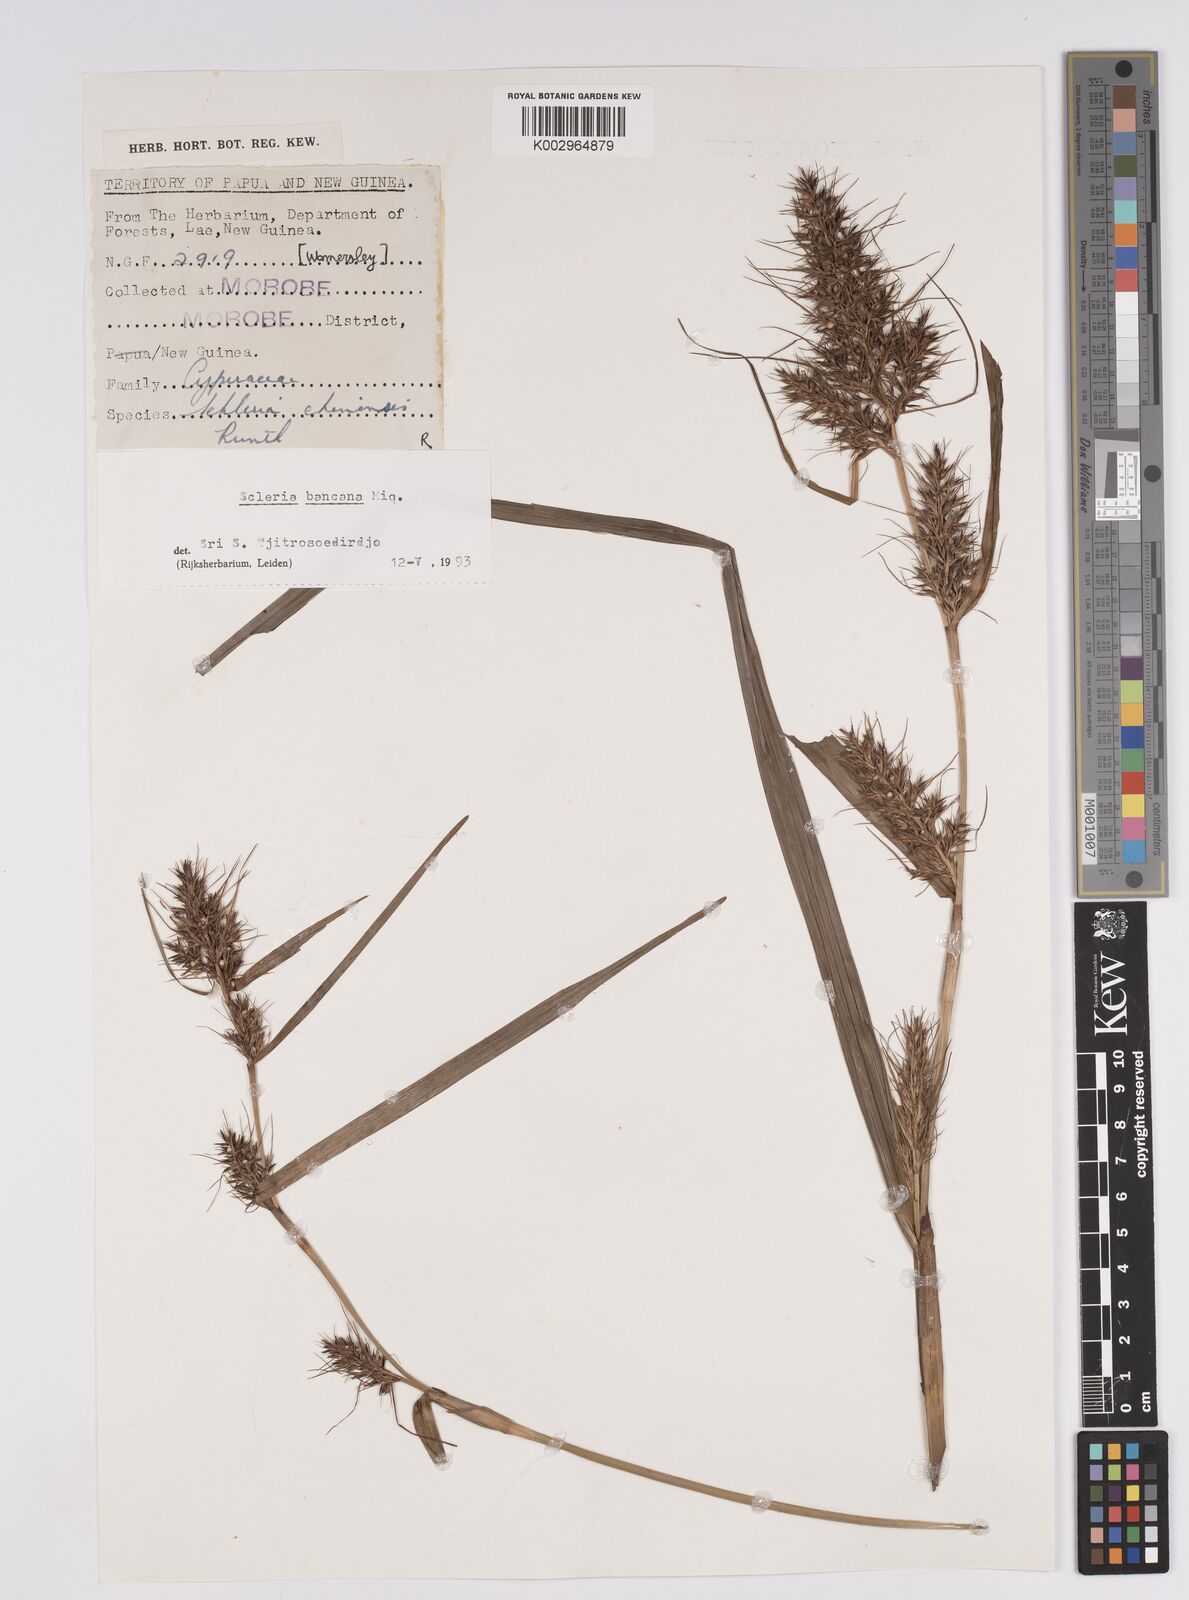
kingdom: Plantae
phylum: Tracheophyta
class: Liliopsida
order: Poales
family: Cyperaceae
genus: Scleria
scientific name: Scleria ciliaris
